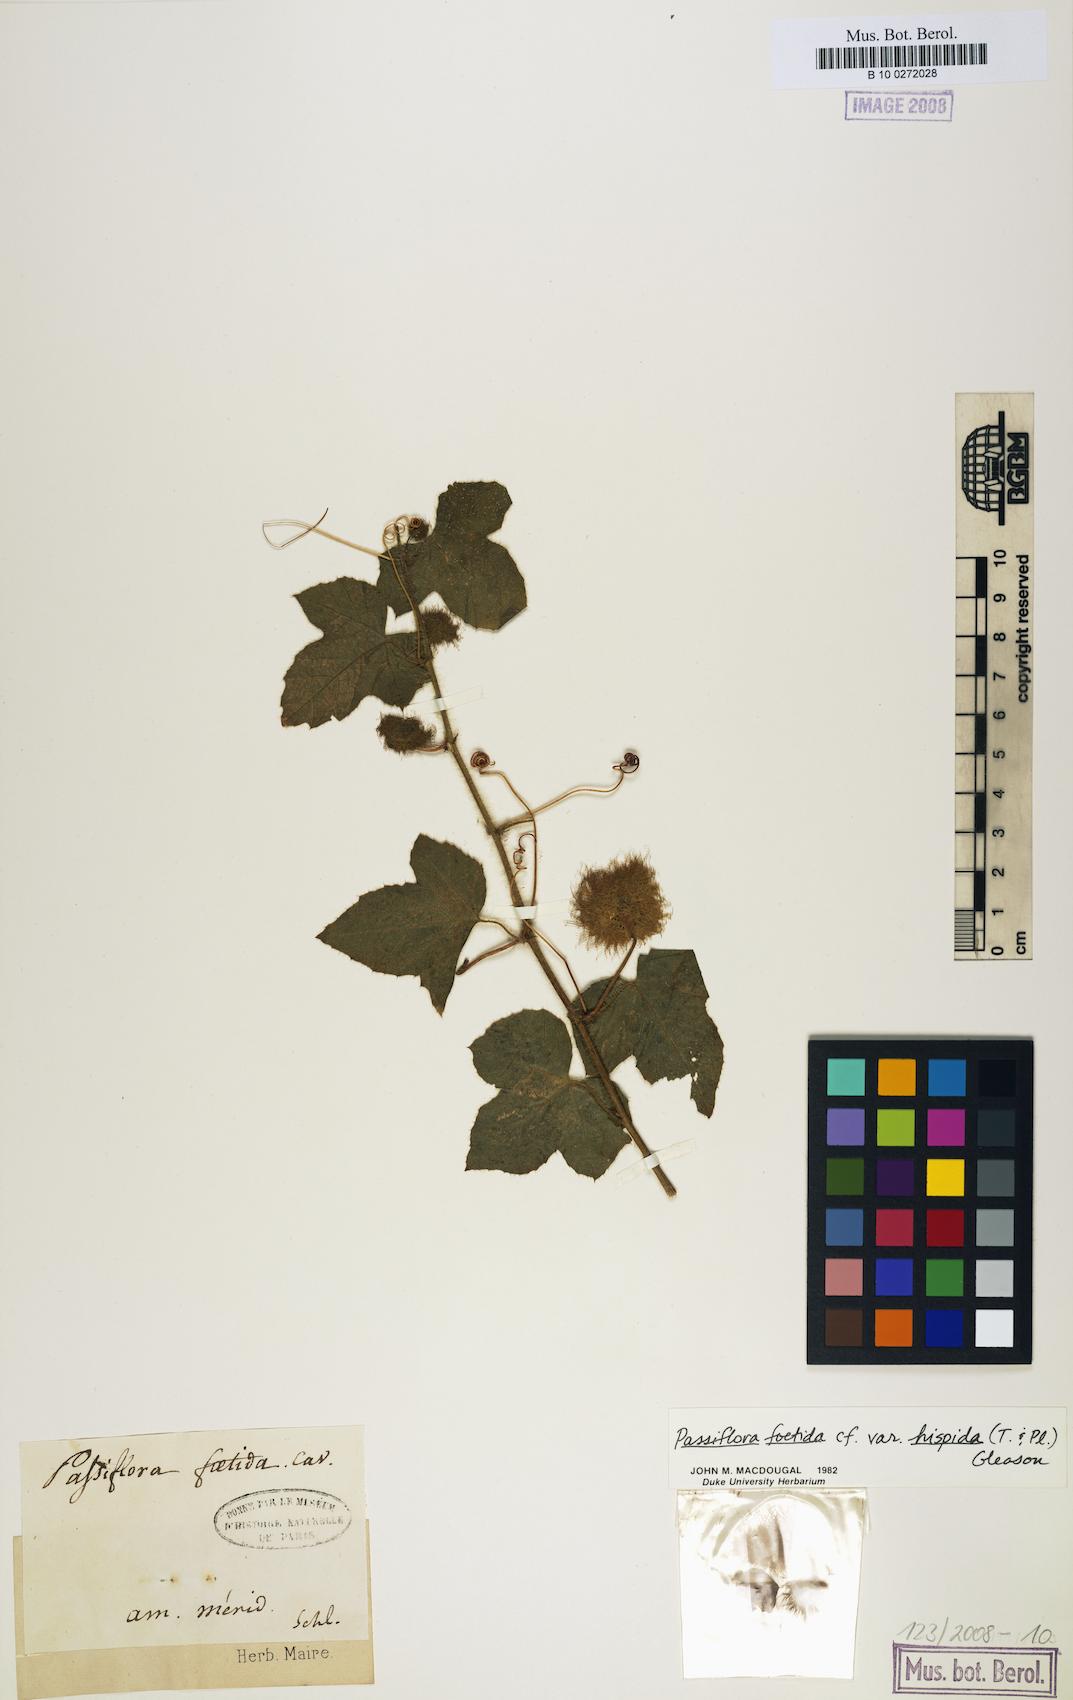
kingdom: Plantae
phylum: Tracheophyta
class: Magnoliopsida
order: Malpighiales
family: Passifloraceae
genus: Passiflora
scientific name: Passiflora vesicaria
